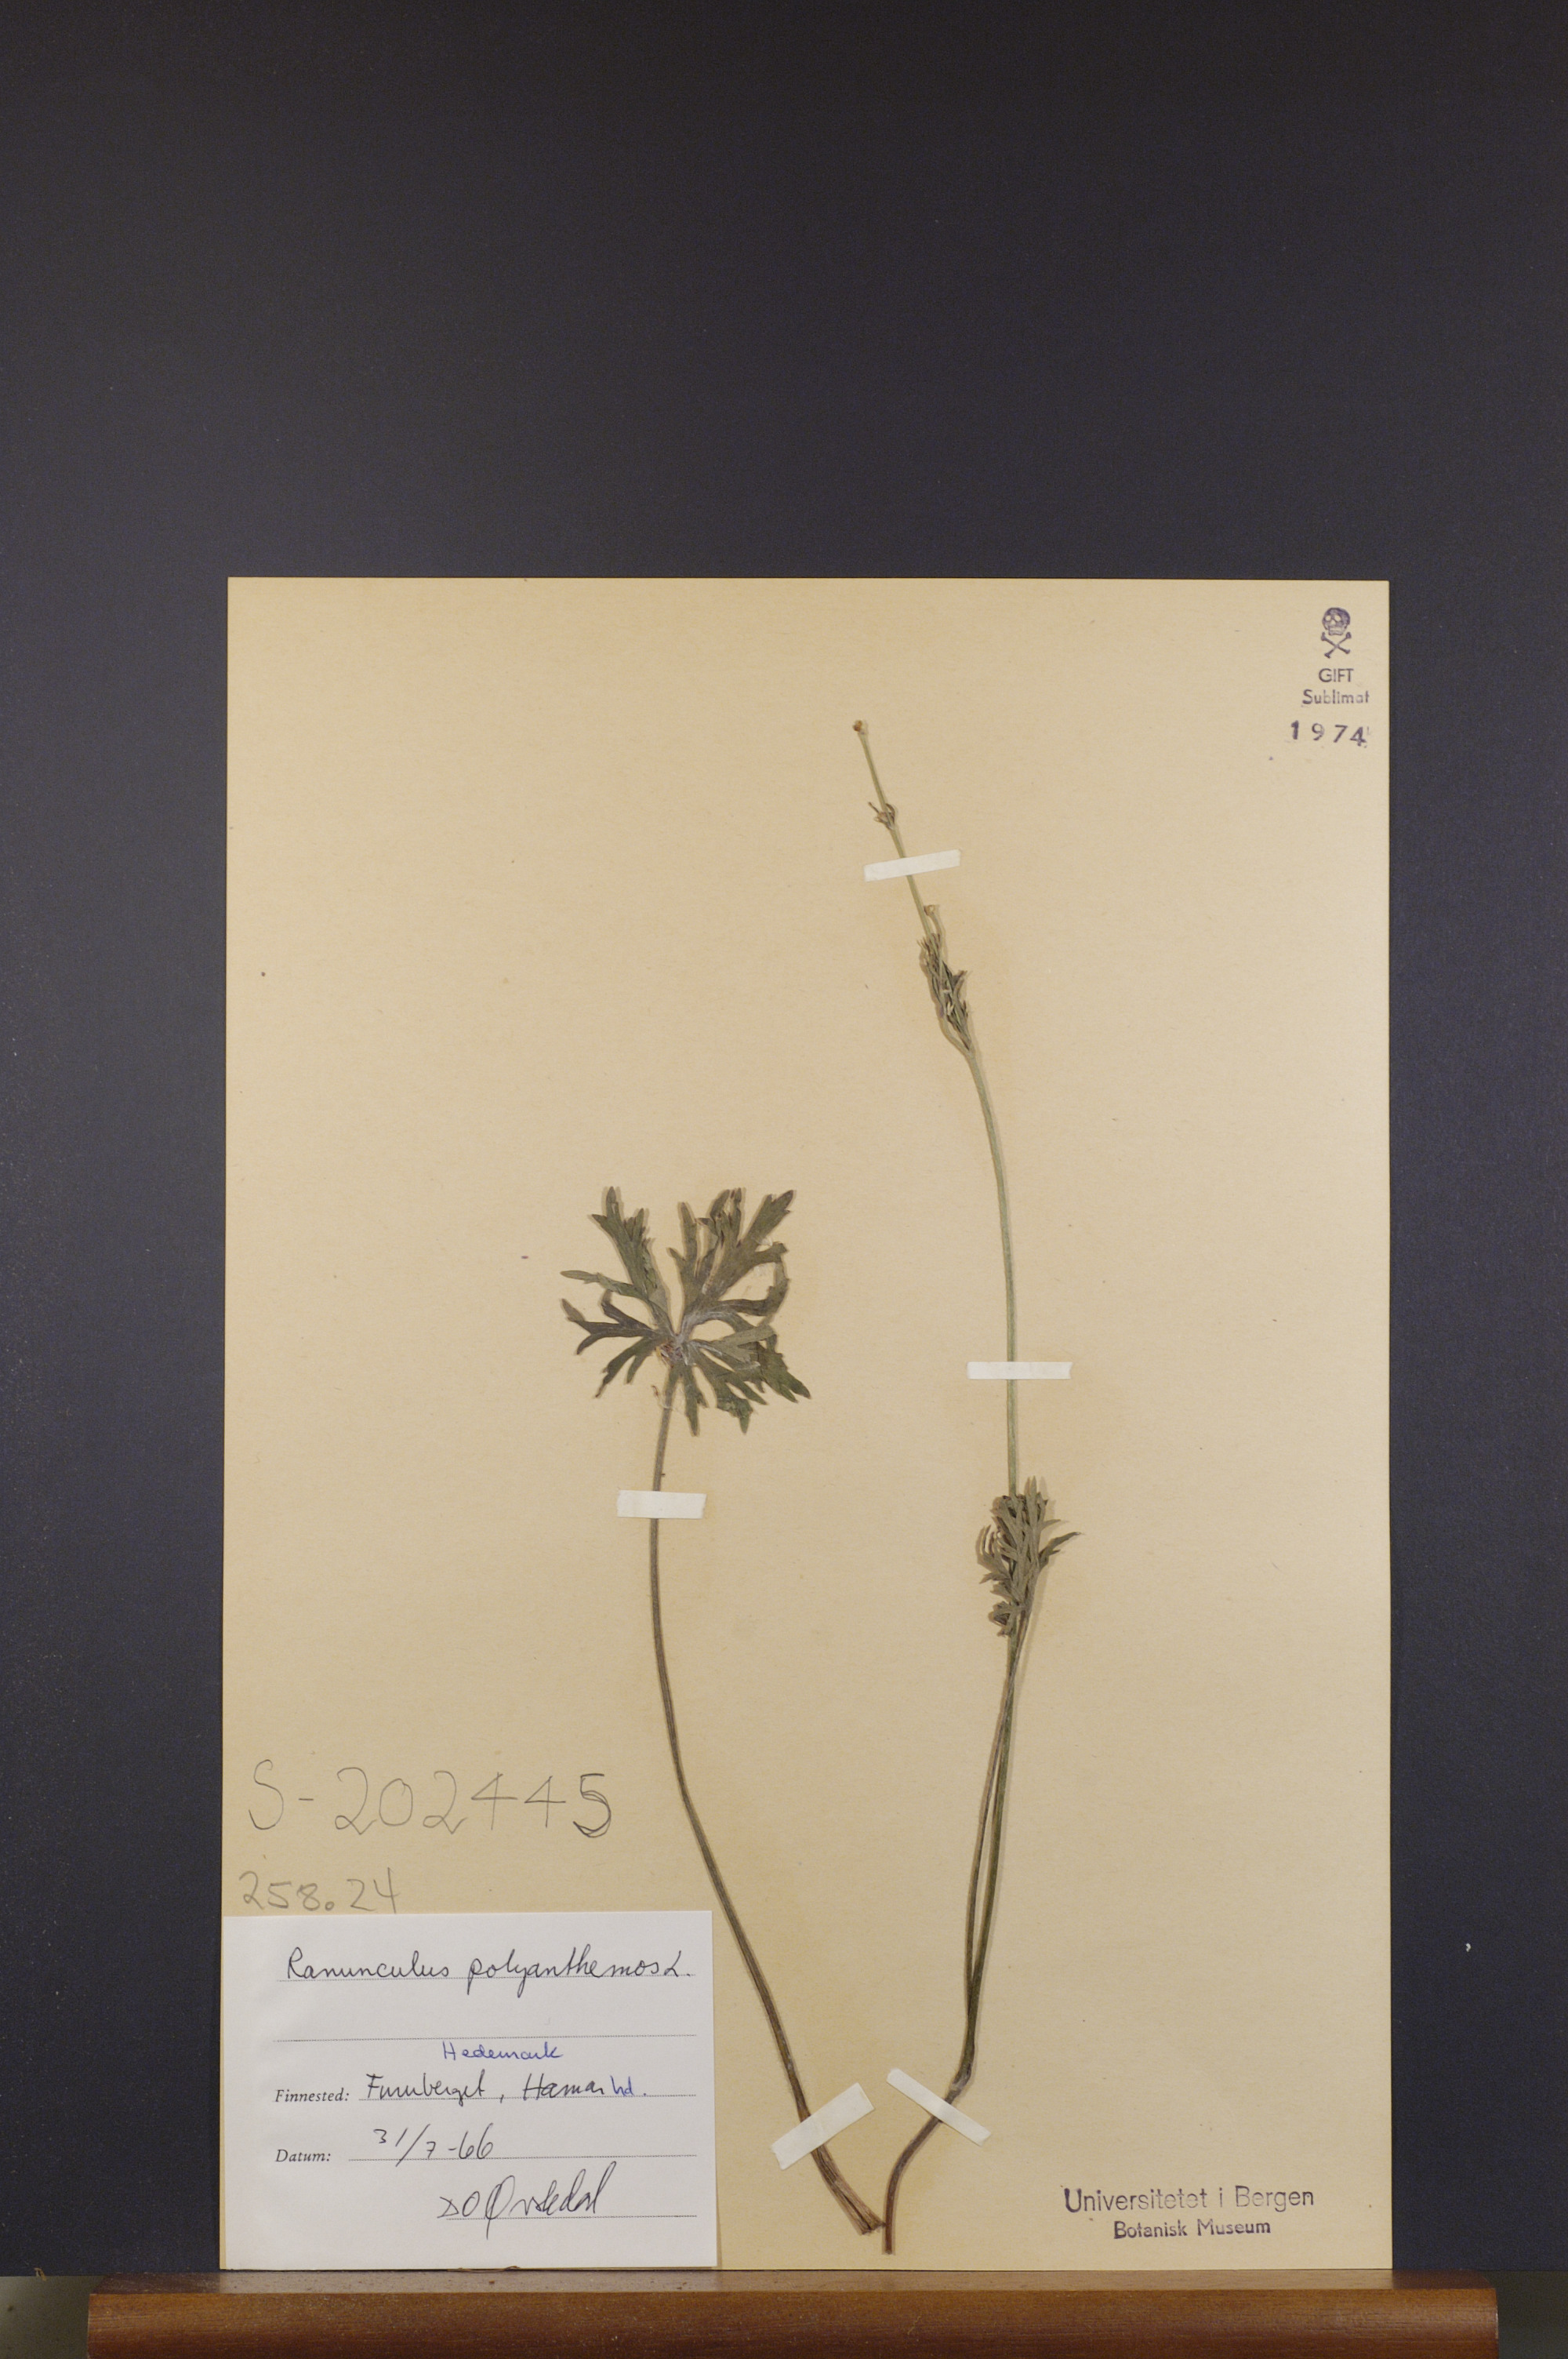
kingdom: Plantae
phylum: Tracheophyta
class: Magnoliopsida
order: Ranunculales
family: Ranunculaceae
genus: Ranunculus
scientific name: Ranunculus polyanthemos
